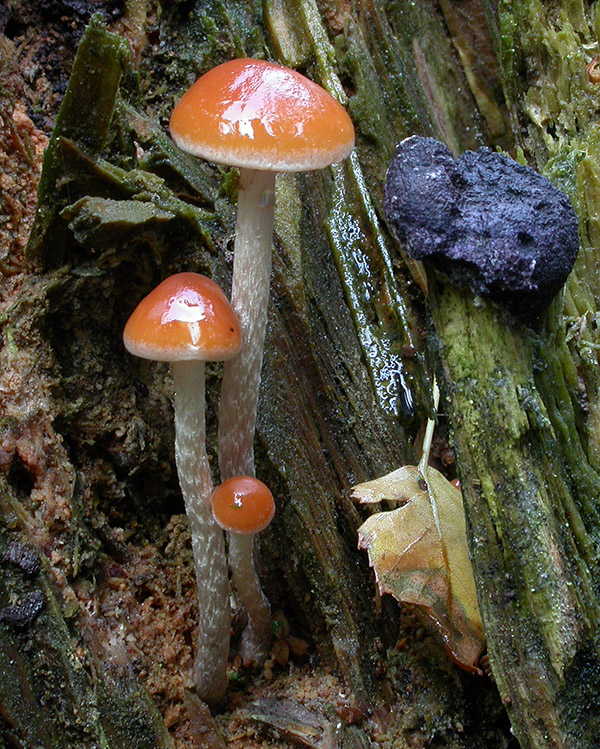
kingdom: Fungi
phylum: Basidiomycota
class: Agaricomycetes
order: Agaricales
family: Strophariaceae
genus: Hypholoma
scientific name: Hypholoma marginatum
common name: enlig svovlhat
